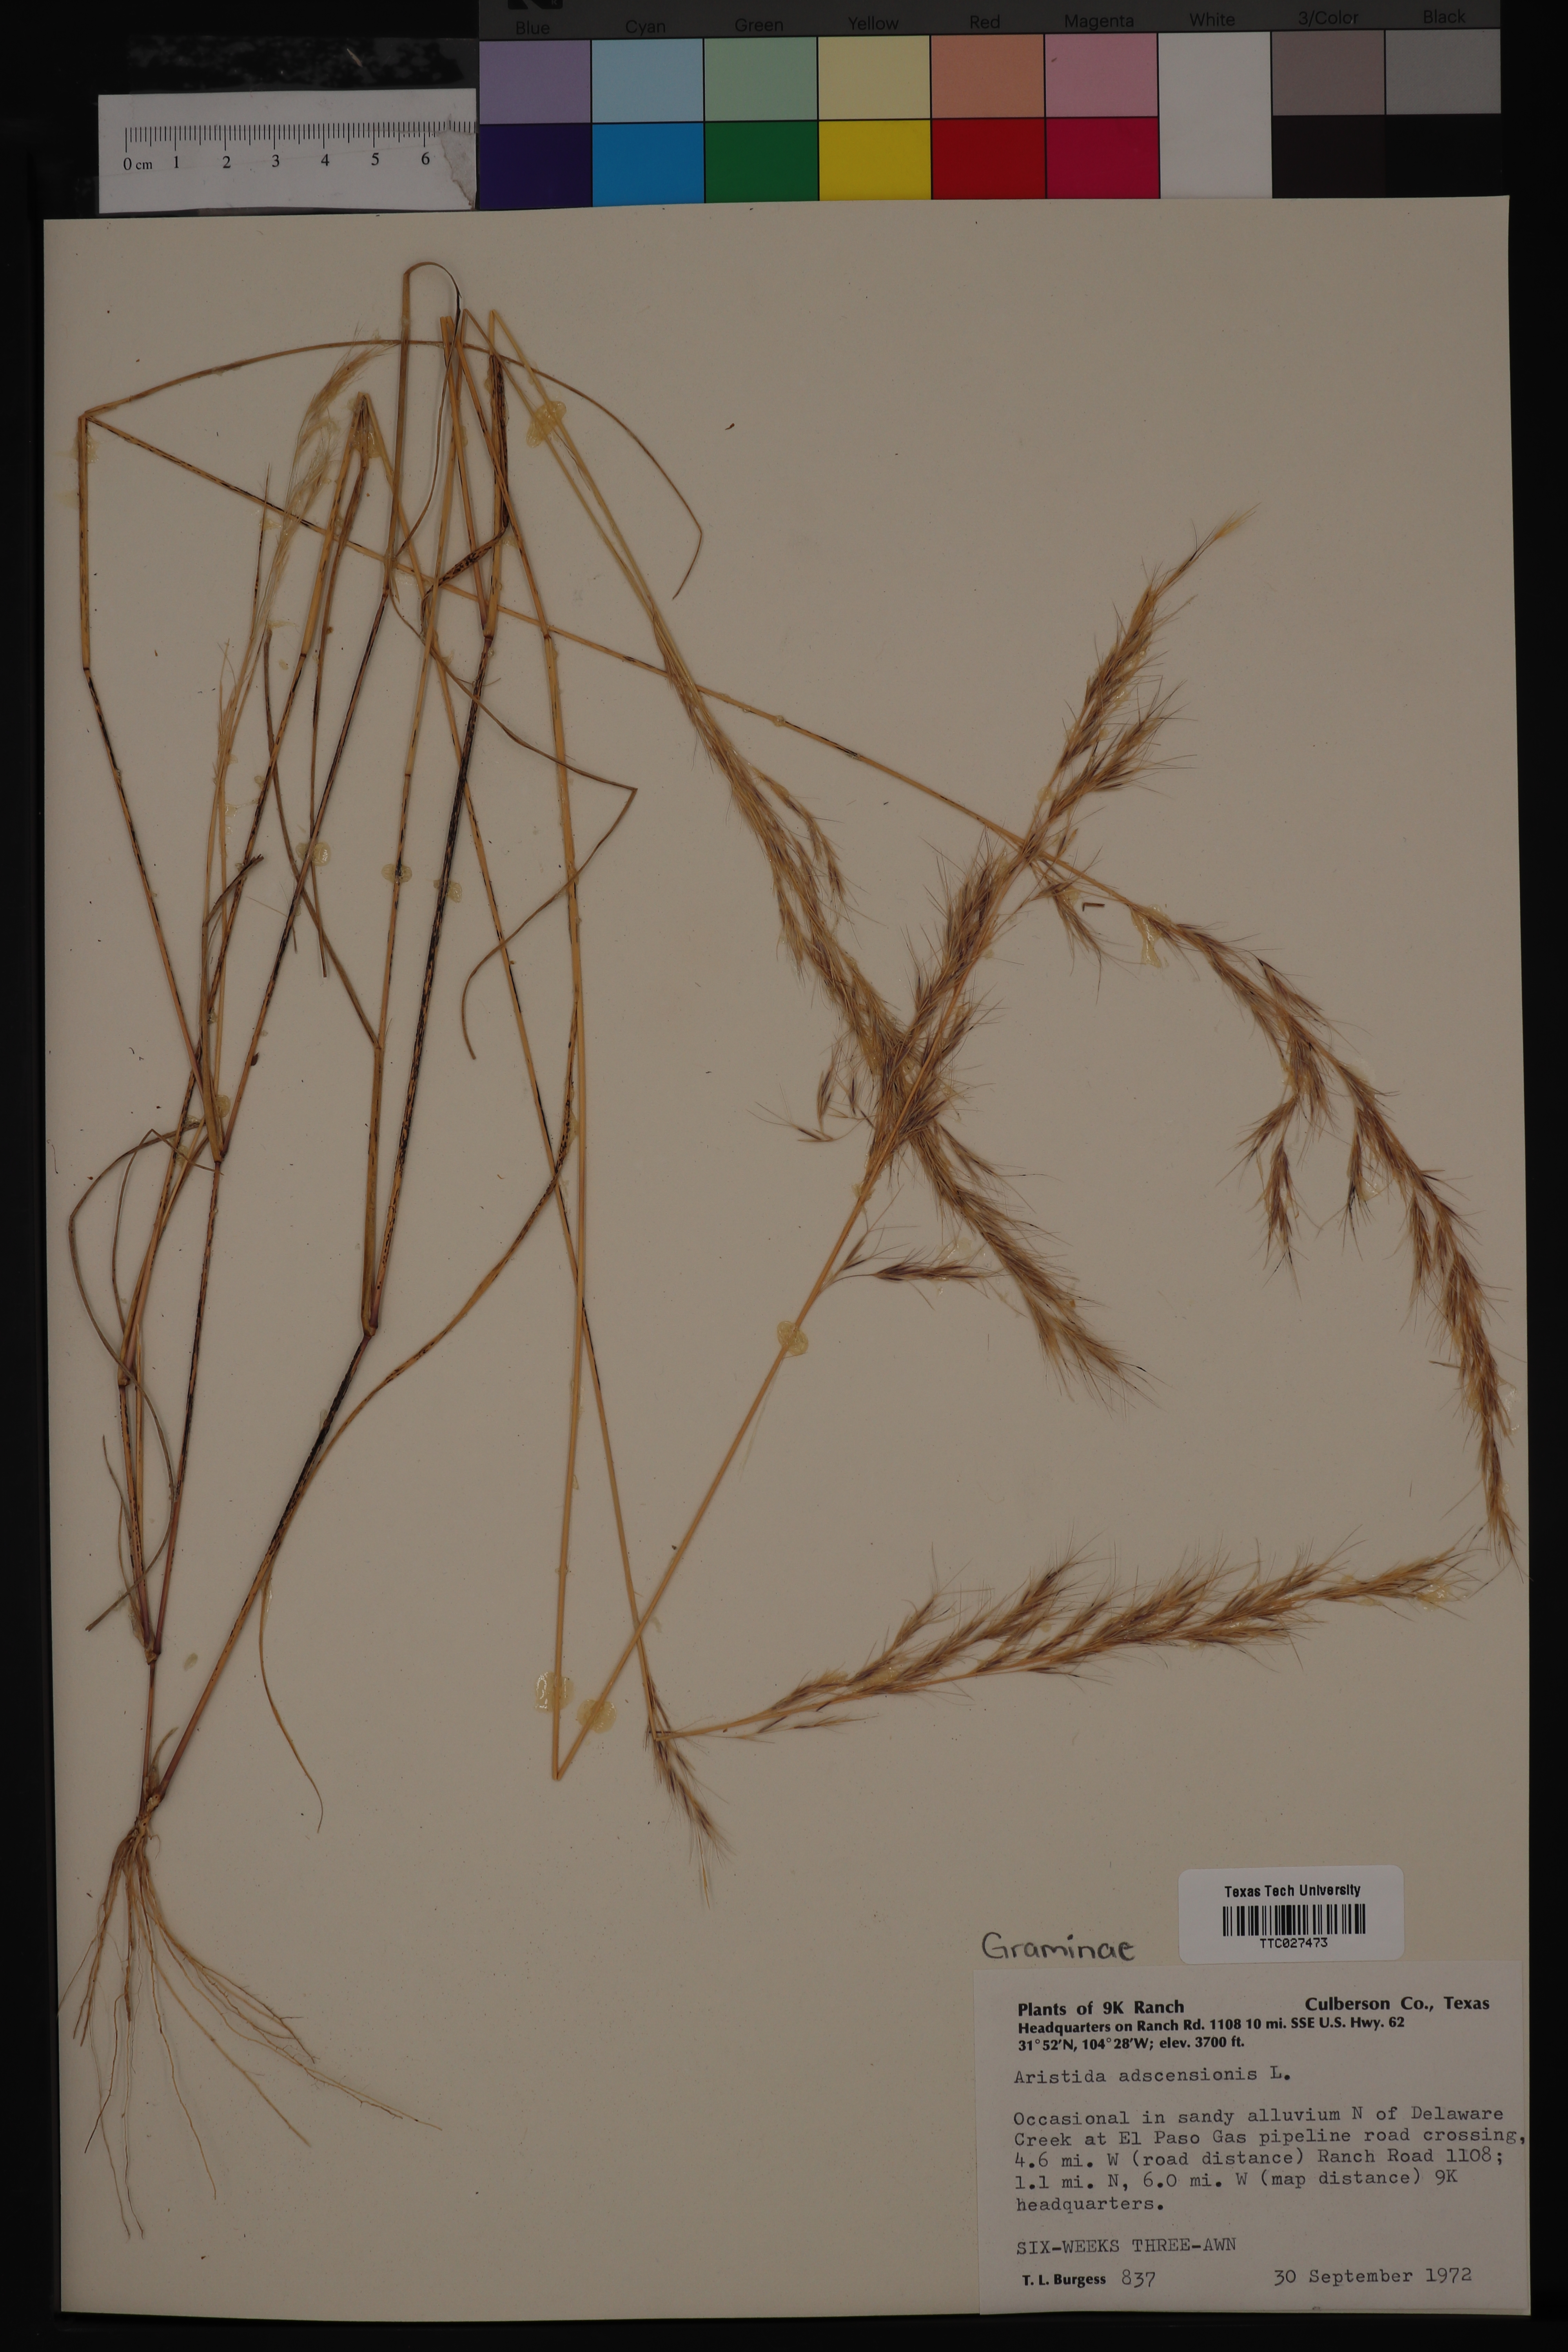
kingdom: Plantae
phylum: Tracheophyta
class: Liliopsida
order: Poales
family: Poaceae
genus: Aristida
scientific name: Aristida adscensionis
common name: Sixweeks threeawn
